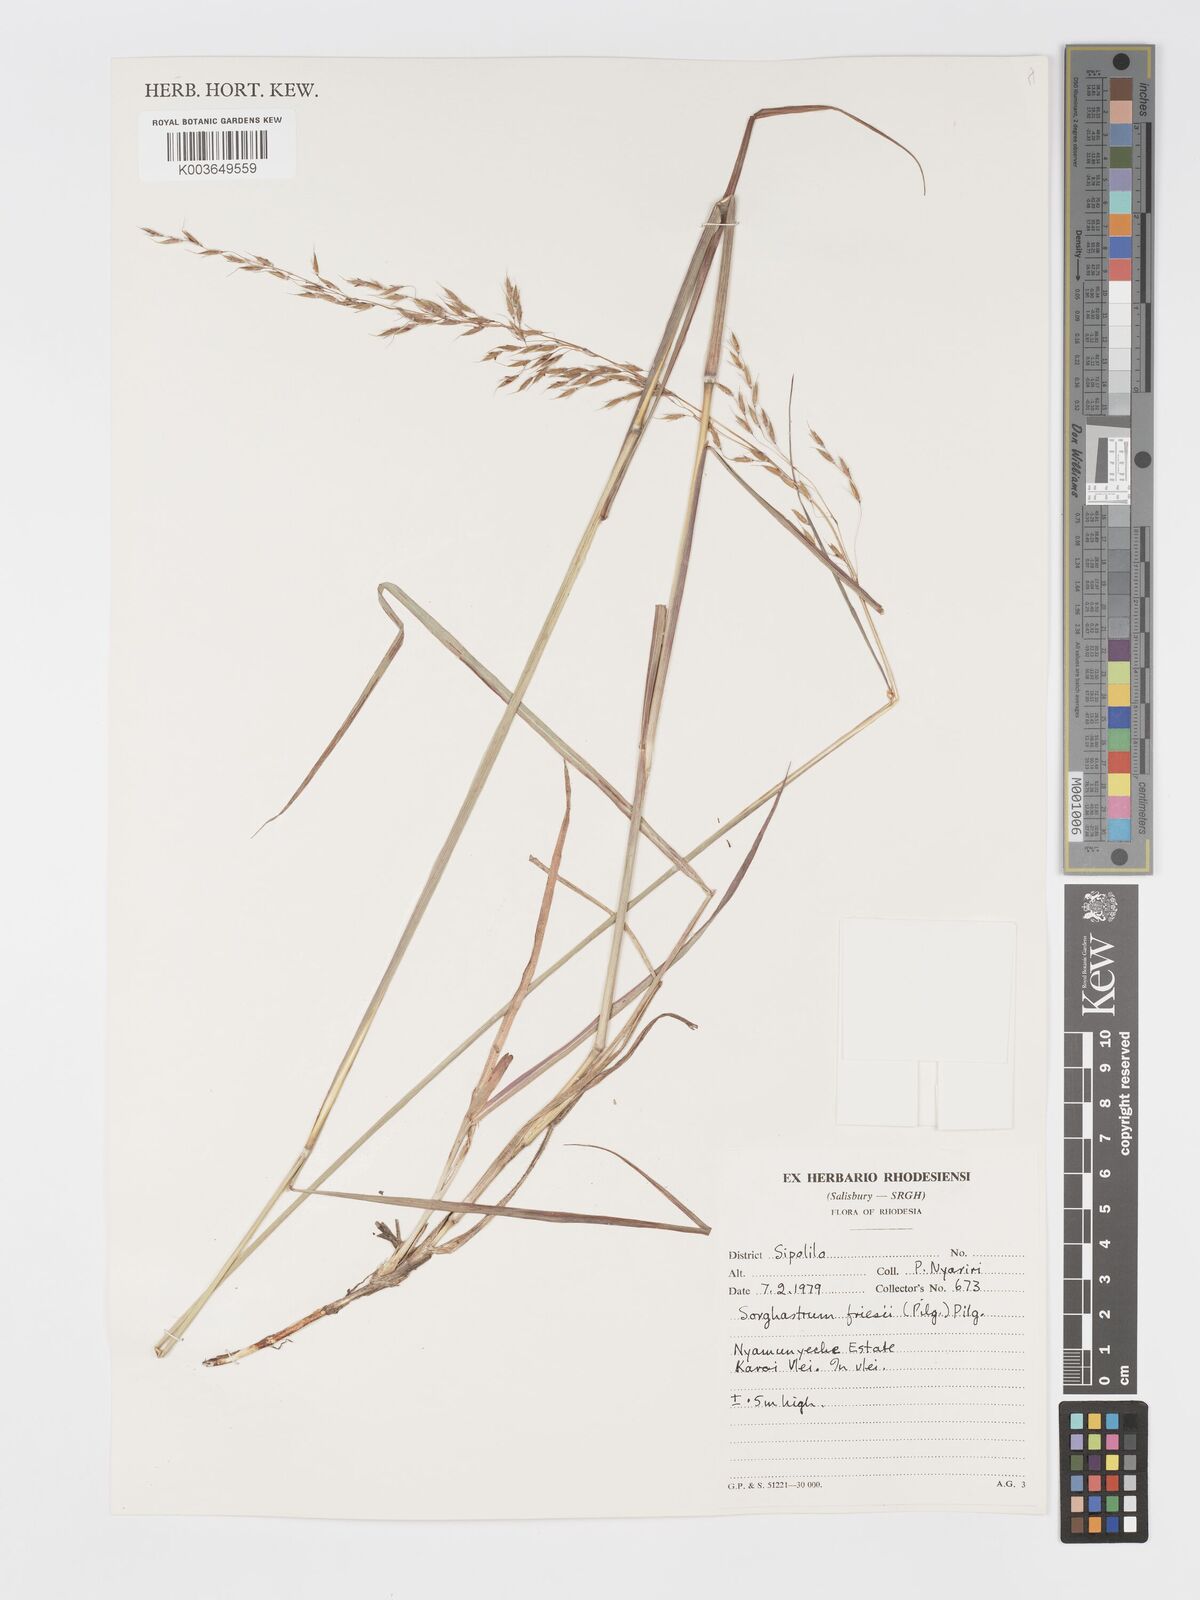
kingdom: Plantae
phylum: Tracheophyta
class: Liliopsida
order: Poales
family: Poaceae
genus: Sorghastrum
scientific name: Sorghastrum nudipes
